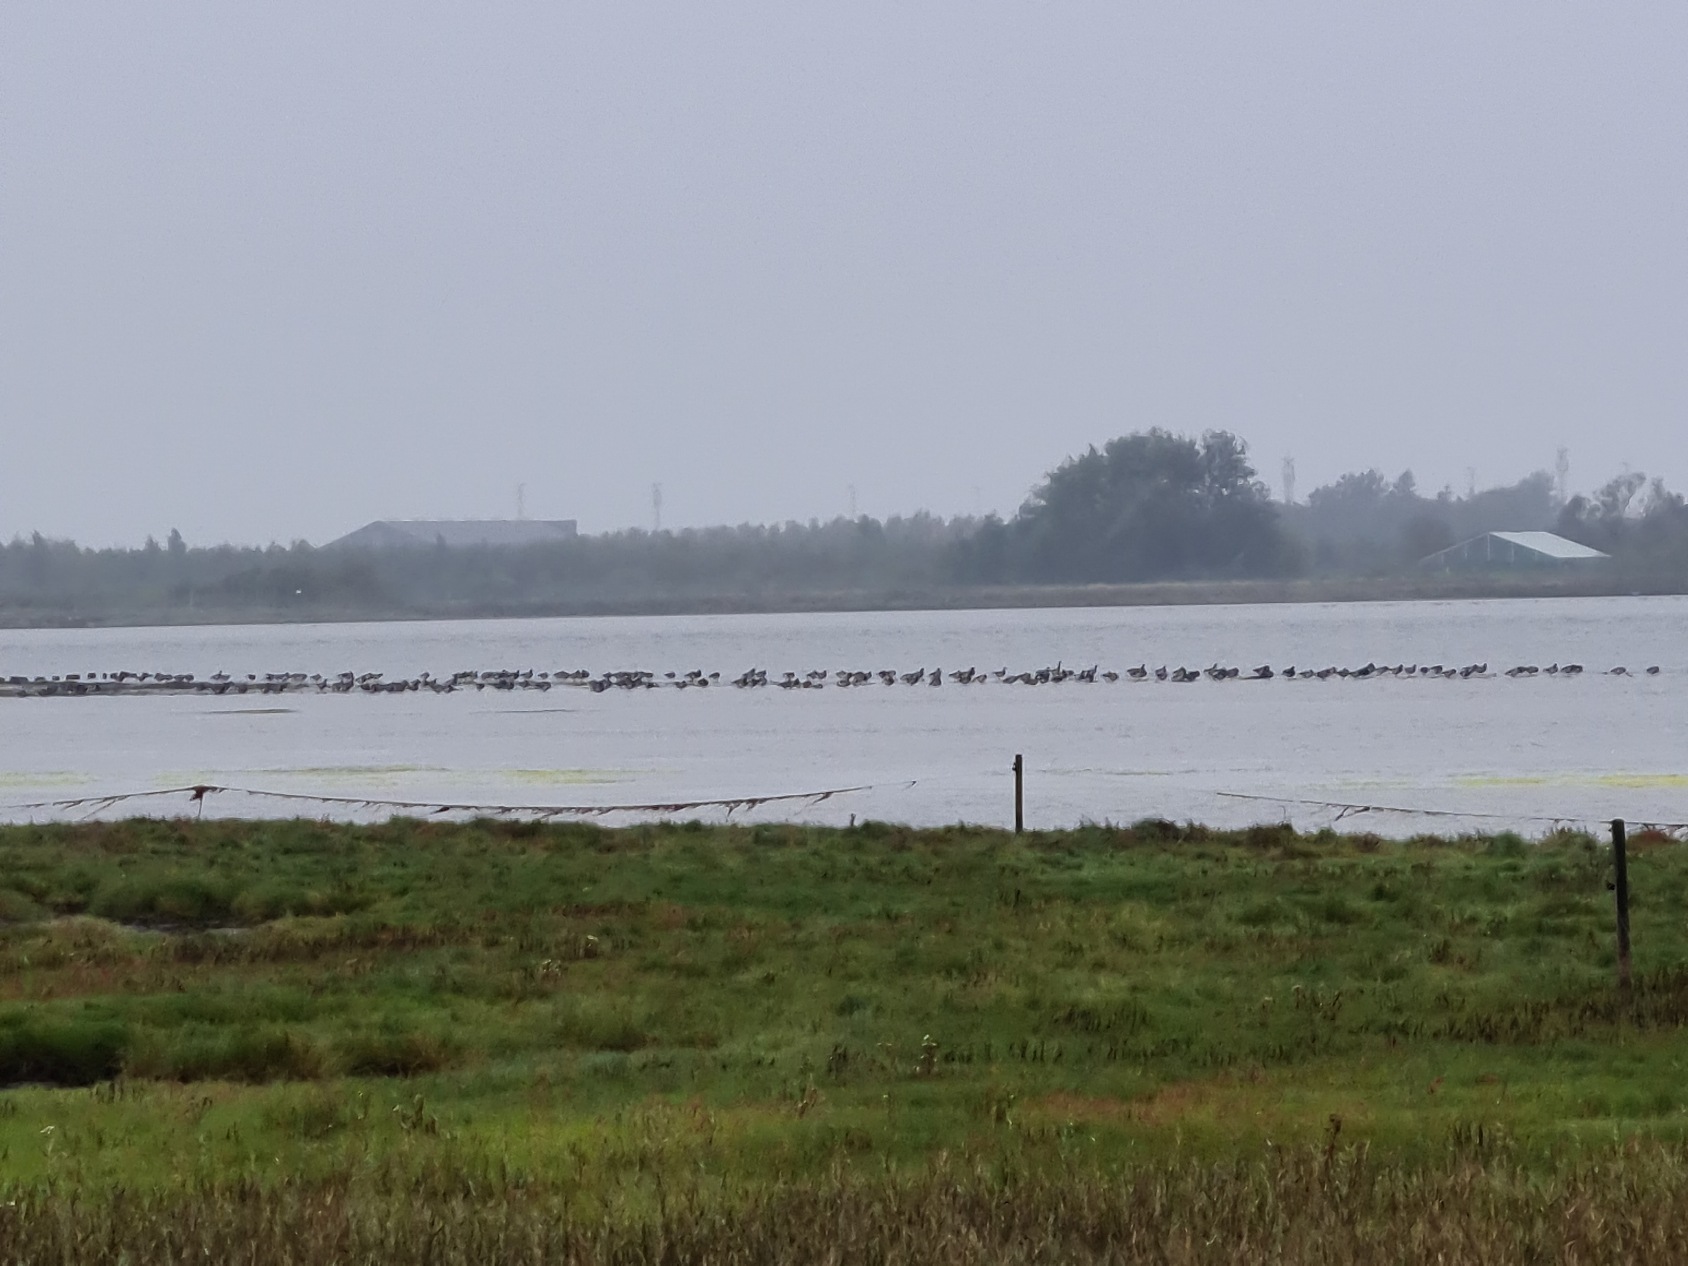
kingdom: Animalia
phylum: Chordata
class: Aves
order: Anseriformes
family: Anatidae
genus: Branta
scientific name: Branta bernicla
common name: Lysbuget knortegås
